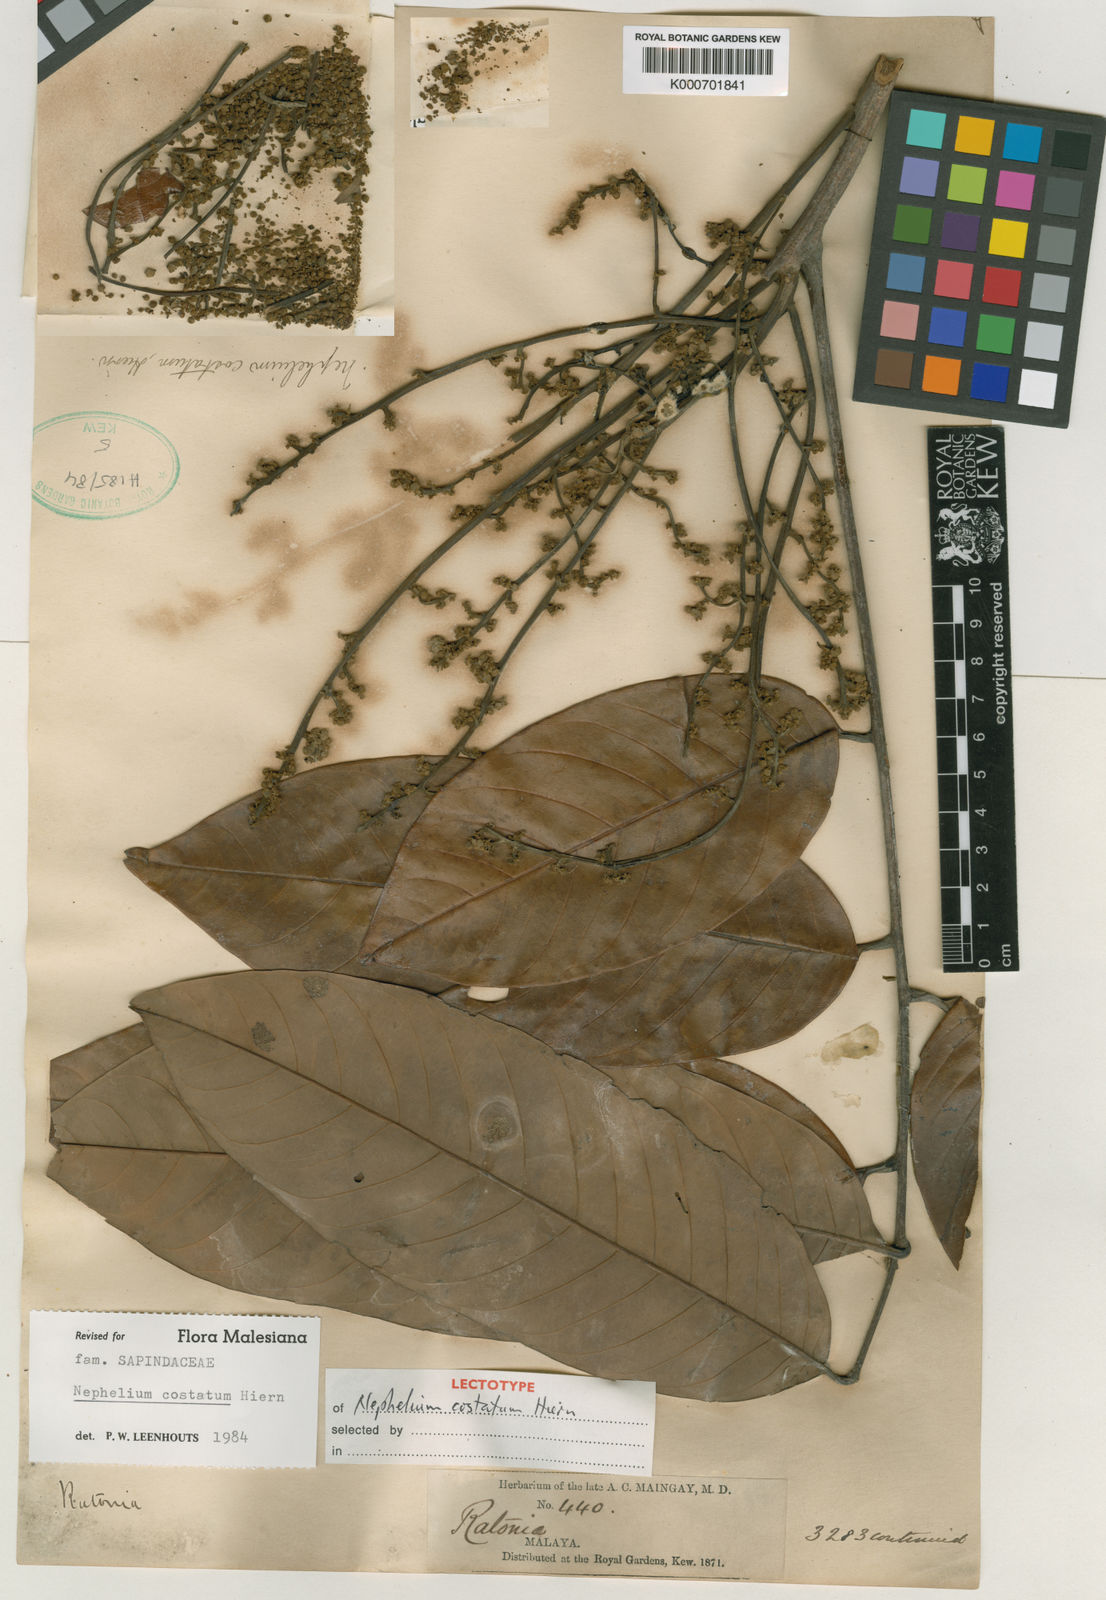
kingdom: Plantae
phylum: Tracheophyta
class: Magnoliopsida
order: Sapindales
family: Sapindaceae
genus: Nephelium
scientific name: Nephelium costatum
